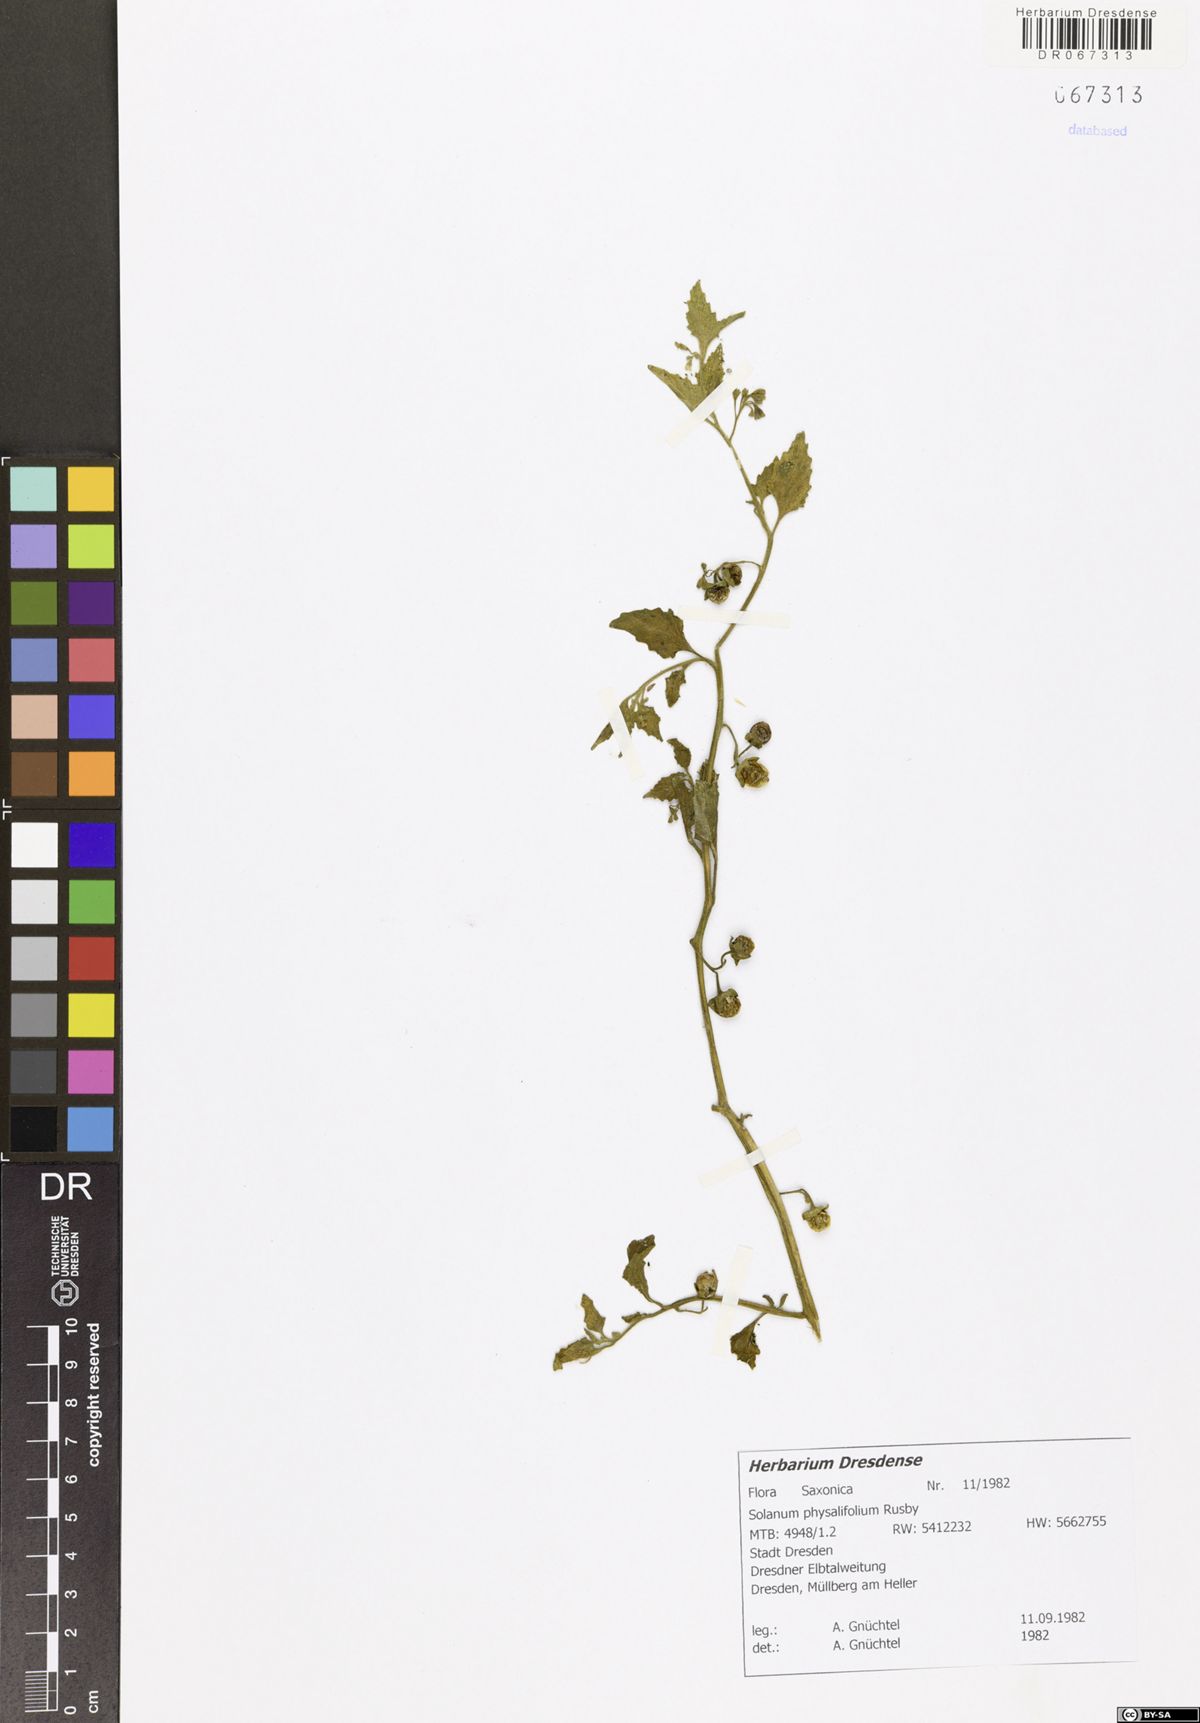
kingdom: Plantae
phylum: Tracheophyta
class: Magnoliopsida
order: Solanales
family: Solanaceae
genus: Solanum
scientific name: Solanum nitidibaccatum
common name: Hairy nightshade
